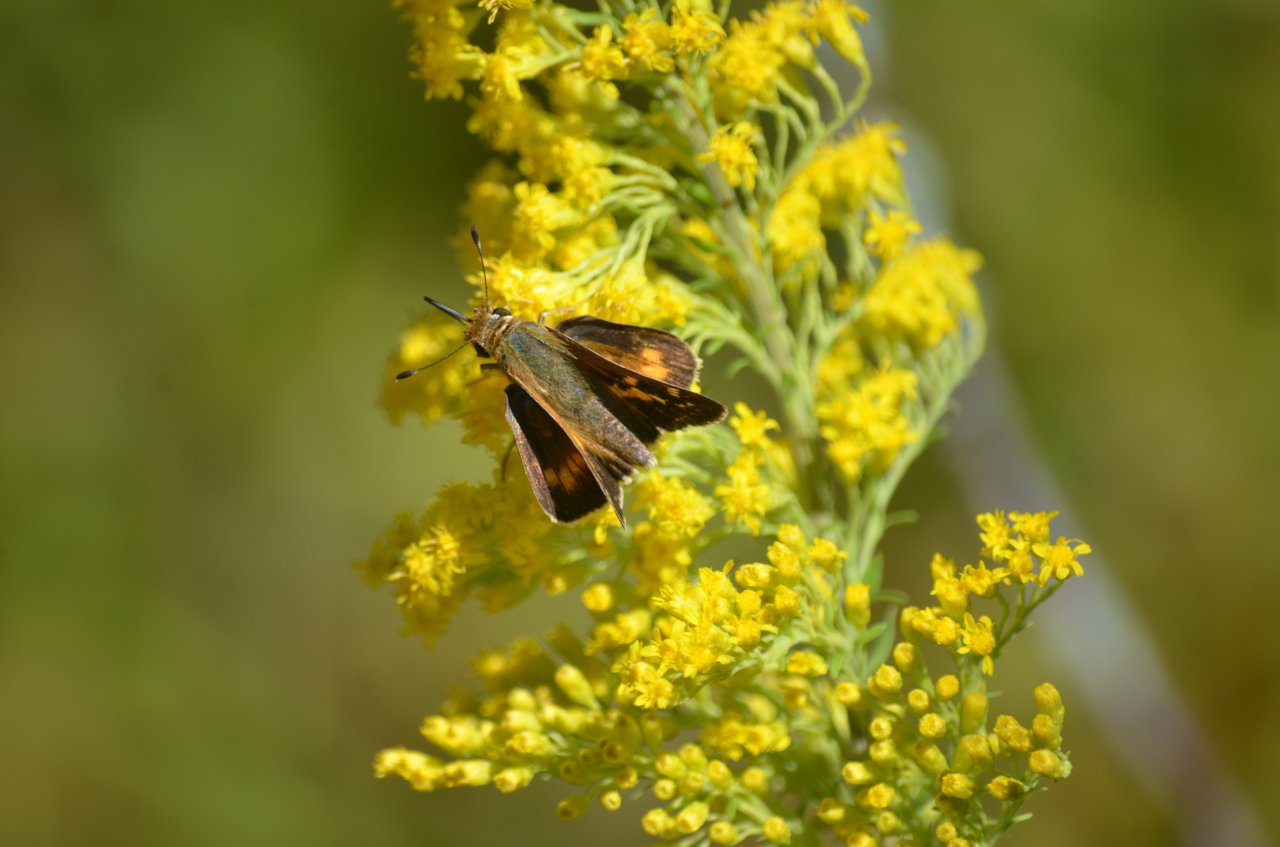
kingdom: Animalia
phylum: Arthropoda
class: Insecta
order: Lepidoptera
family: Hesperiidae
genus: Hesperia
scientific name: Hesperia leonardus
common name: Leonard's Skipper
